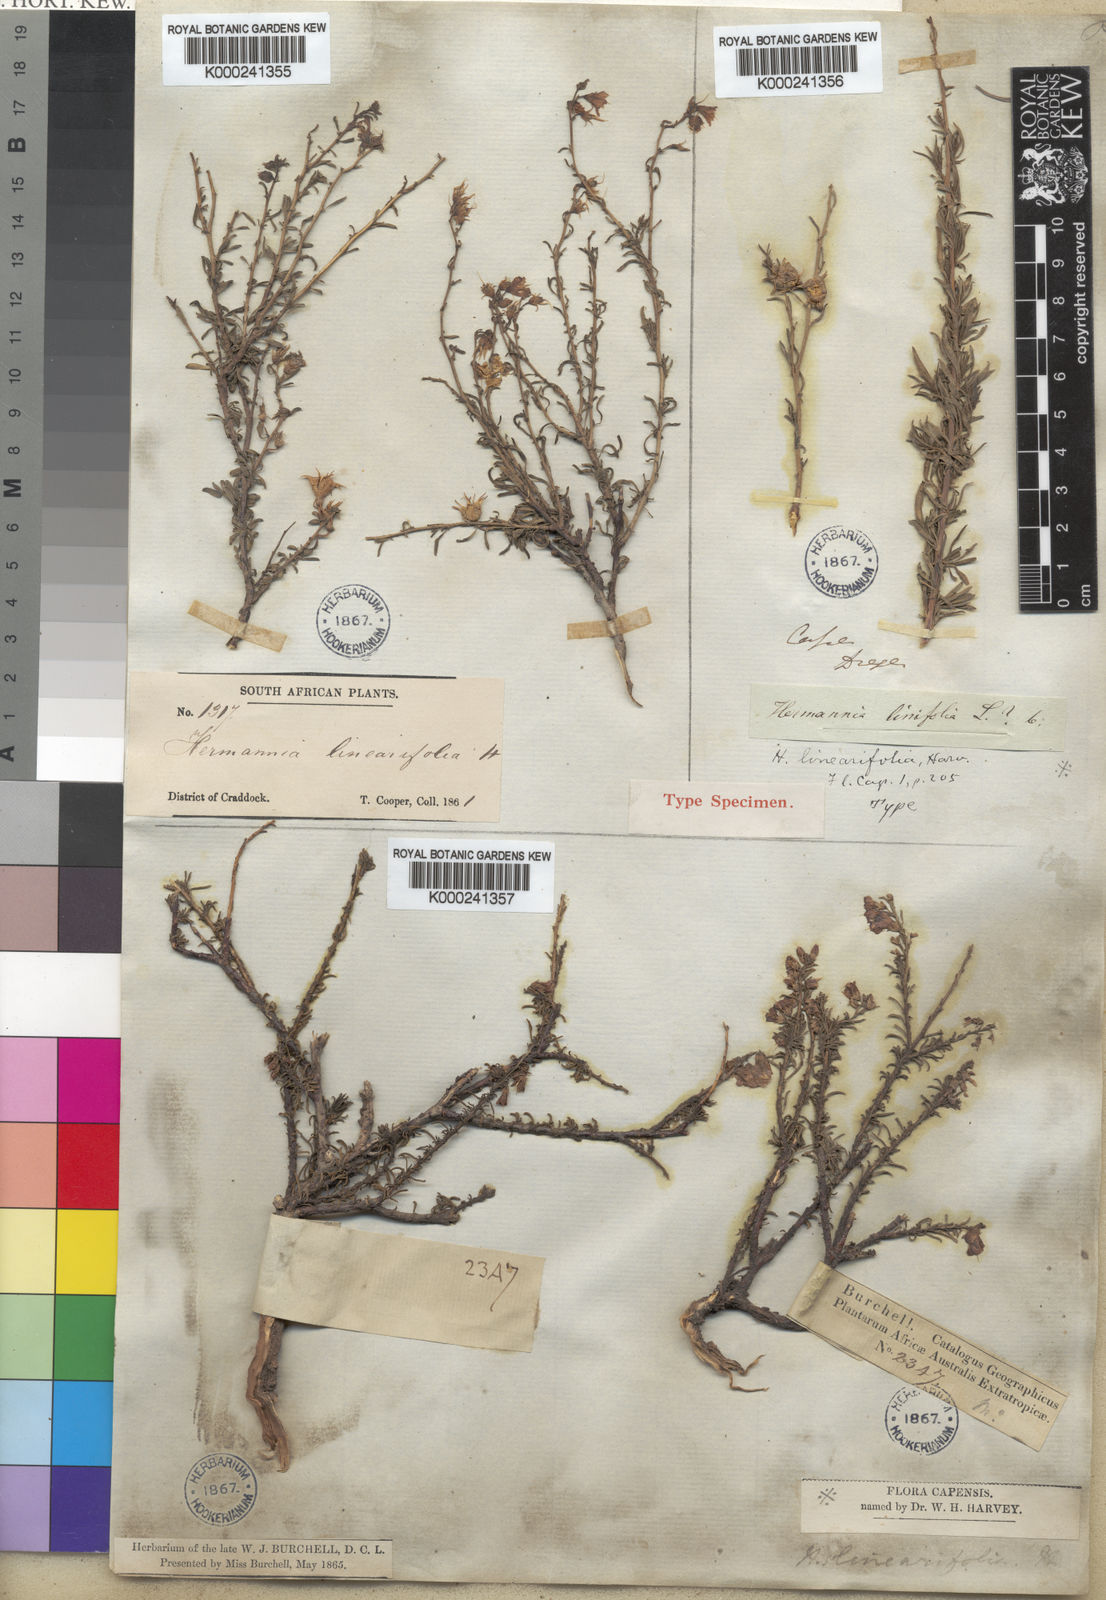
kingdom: Plantae
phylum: Tracheophyta
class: Magnoliopsida
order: Malvales
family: Malvaceae
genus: Hermannia
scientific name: Hermannia linearifolia
